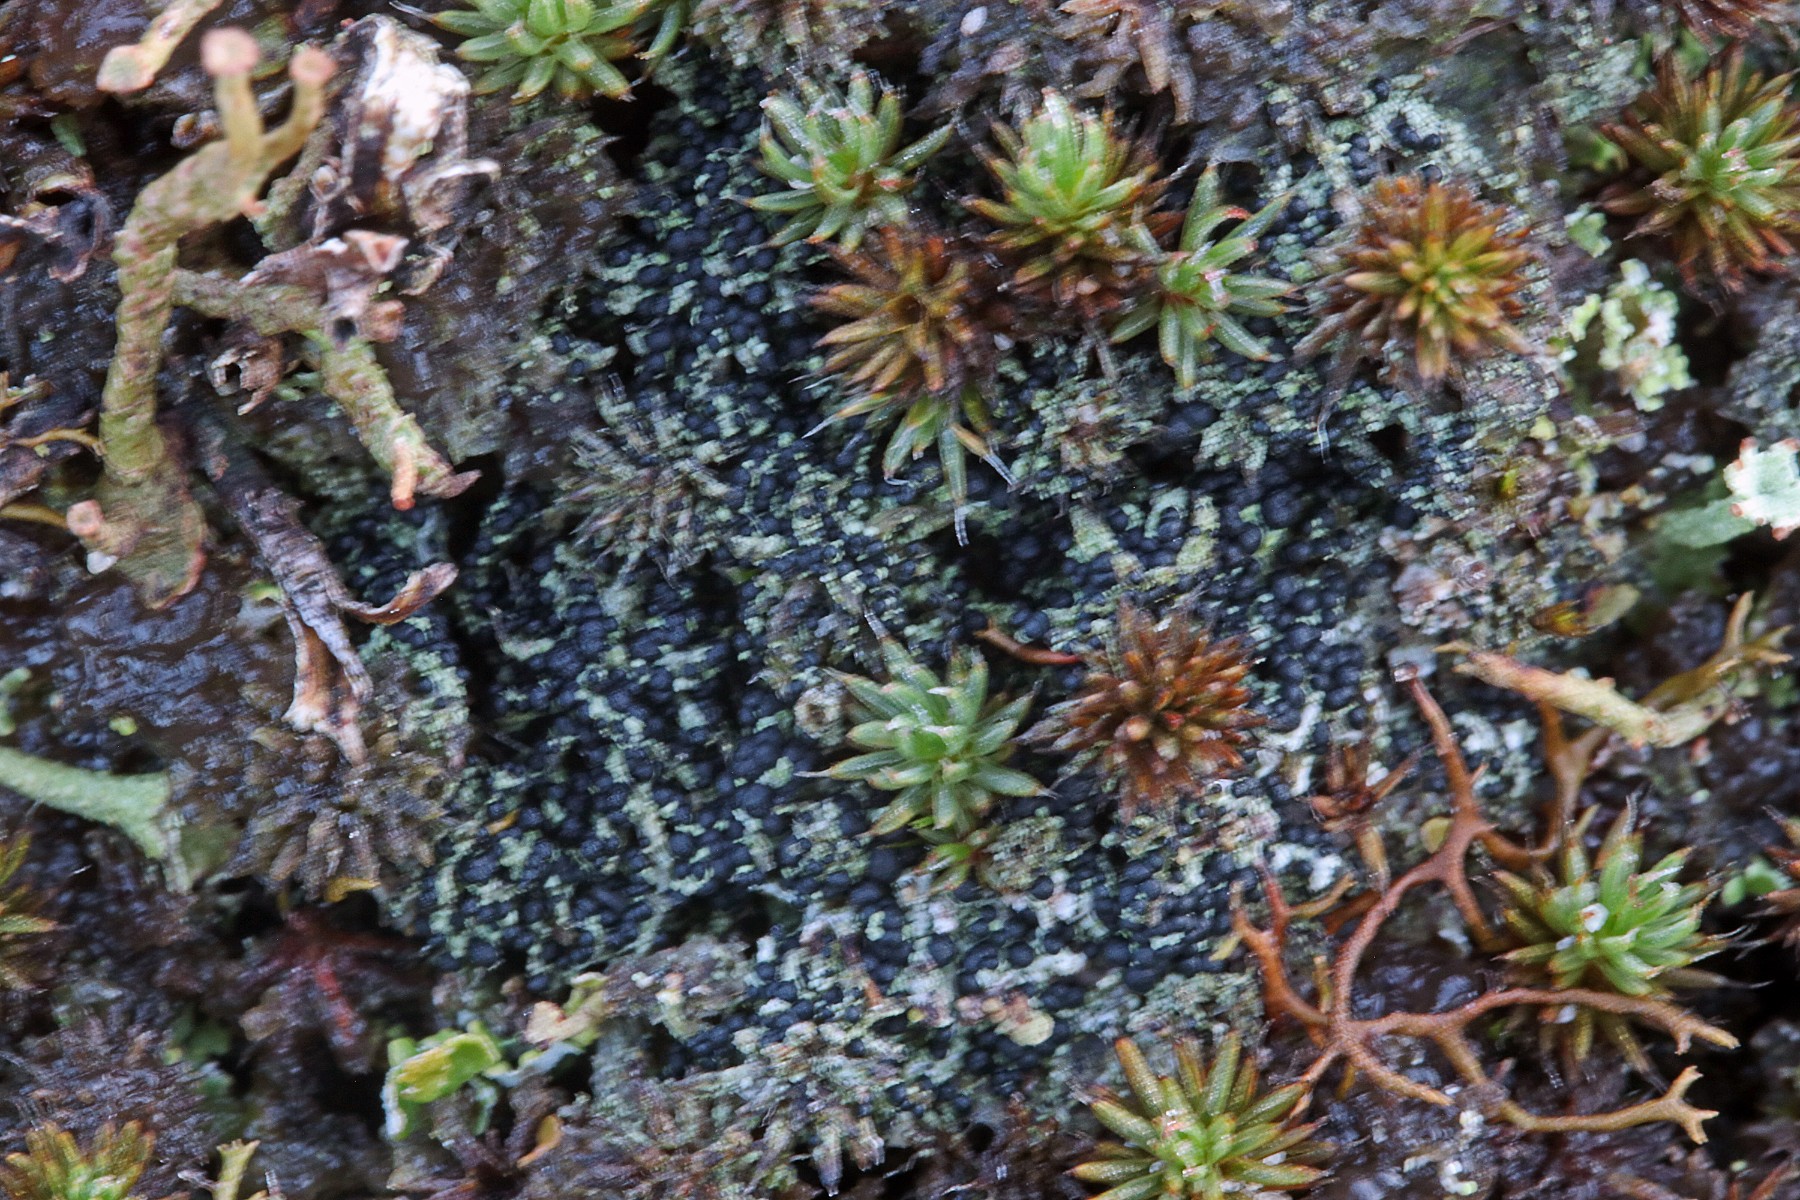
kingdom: Fungi
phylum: Ascomycota
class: Lecanoromycetes
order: Lecanorales
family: Byssolomataceae
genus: Micarea
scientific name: Micarea lignaria
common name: tørve-knaplav
